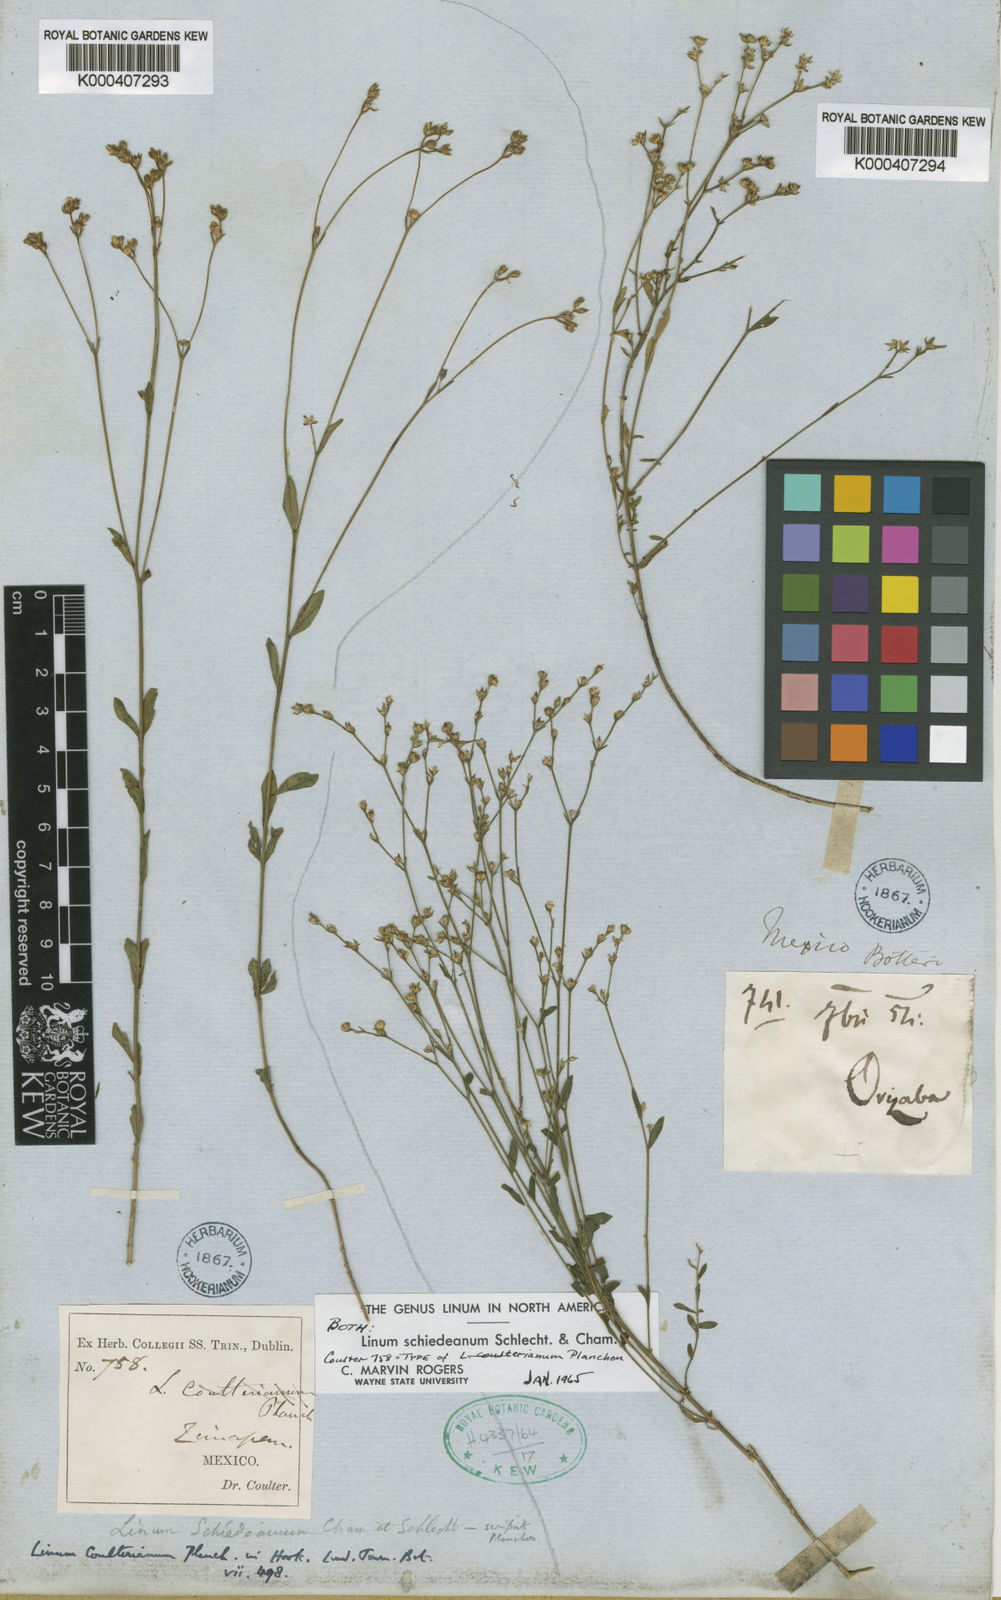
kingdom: Plantae
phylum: Tracheophyta
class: Magnoliopsida
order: Malpighiales
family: Linaceae
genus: Linum
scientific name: Linum schiedeanum
